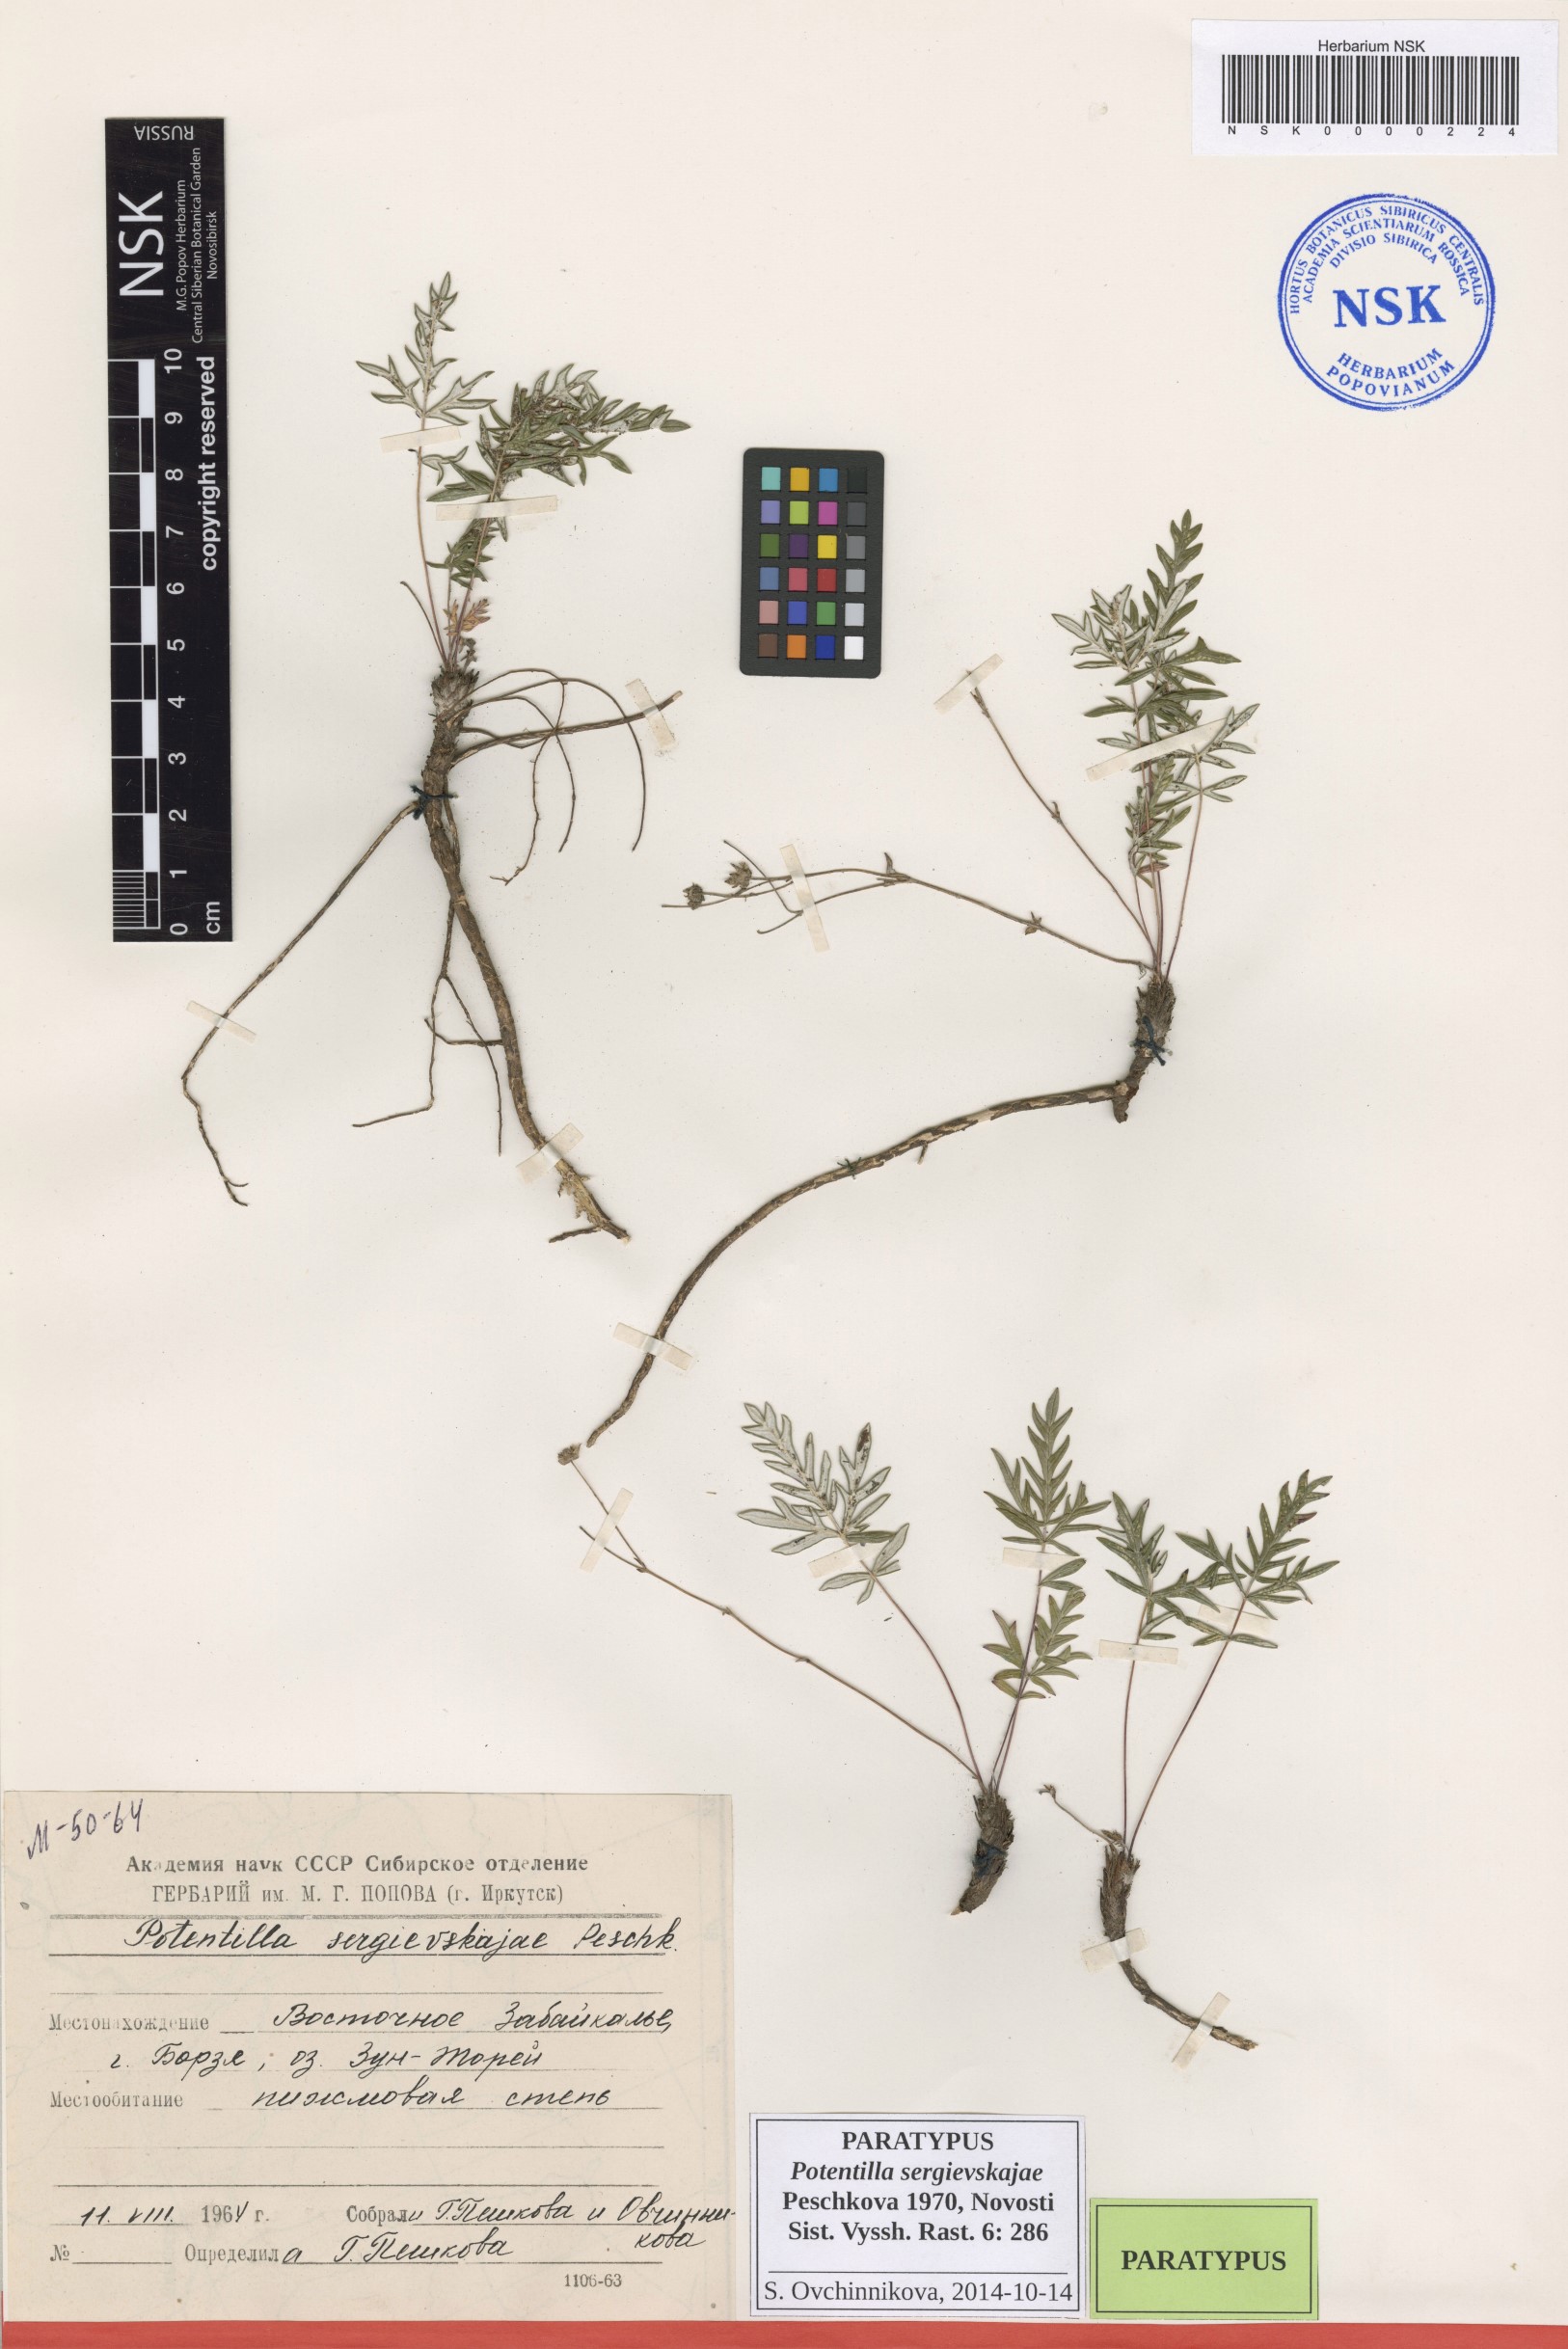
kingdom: Plantae
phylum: Tracheophyta
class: Magnoliopsida
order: Rosales
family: Rosaceae
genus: Potentilla
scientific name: Potentilla sergievskajae
